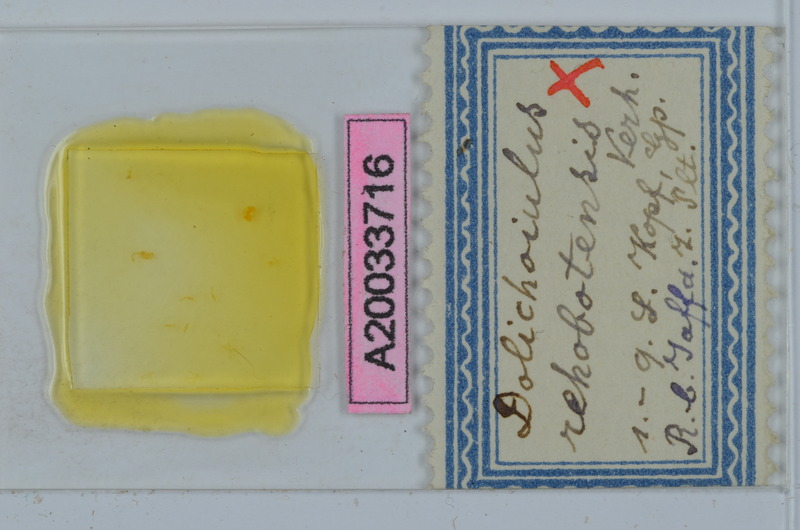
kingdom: Animalia
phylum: Arthropoda
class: Diplopoda
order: Julida
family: Julidae
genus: Mesoiulus
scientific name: Mesoiulus rehobotensis
